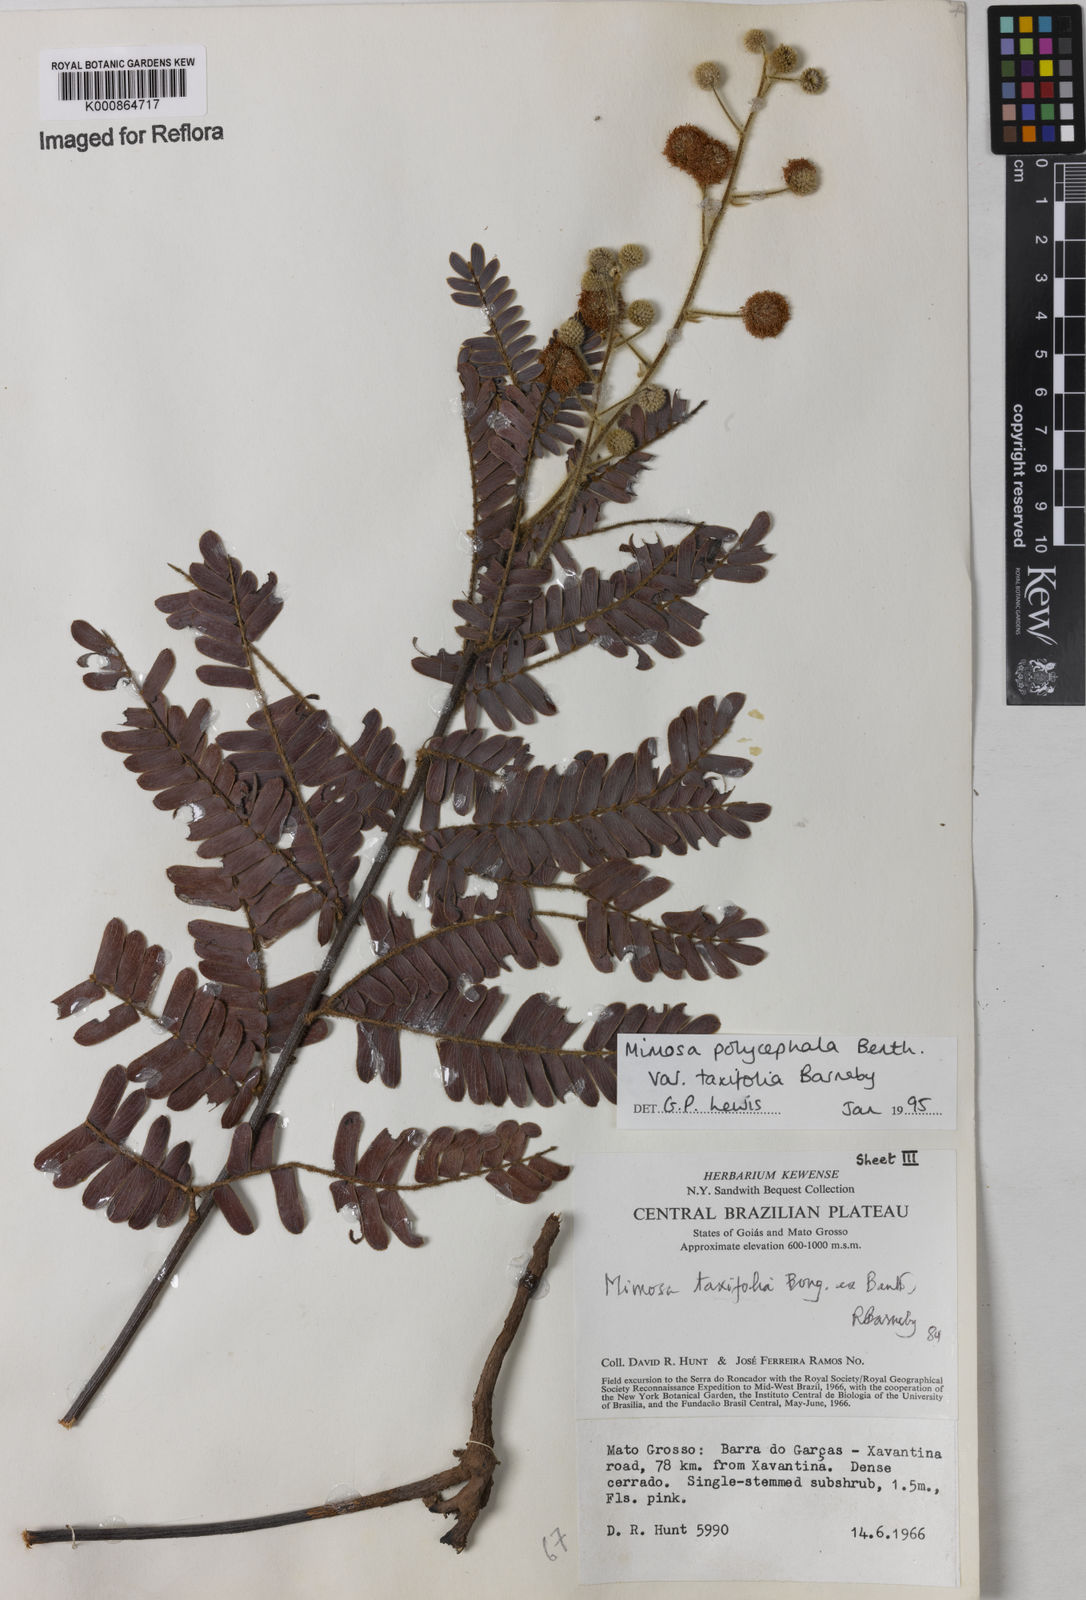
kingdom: Plantae
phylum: Tracheophyta
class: Magnoliopsida
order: Fabales
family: Fabaceae
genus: Mimosa
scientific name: Mimosa polycephala
